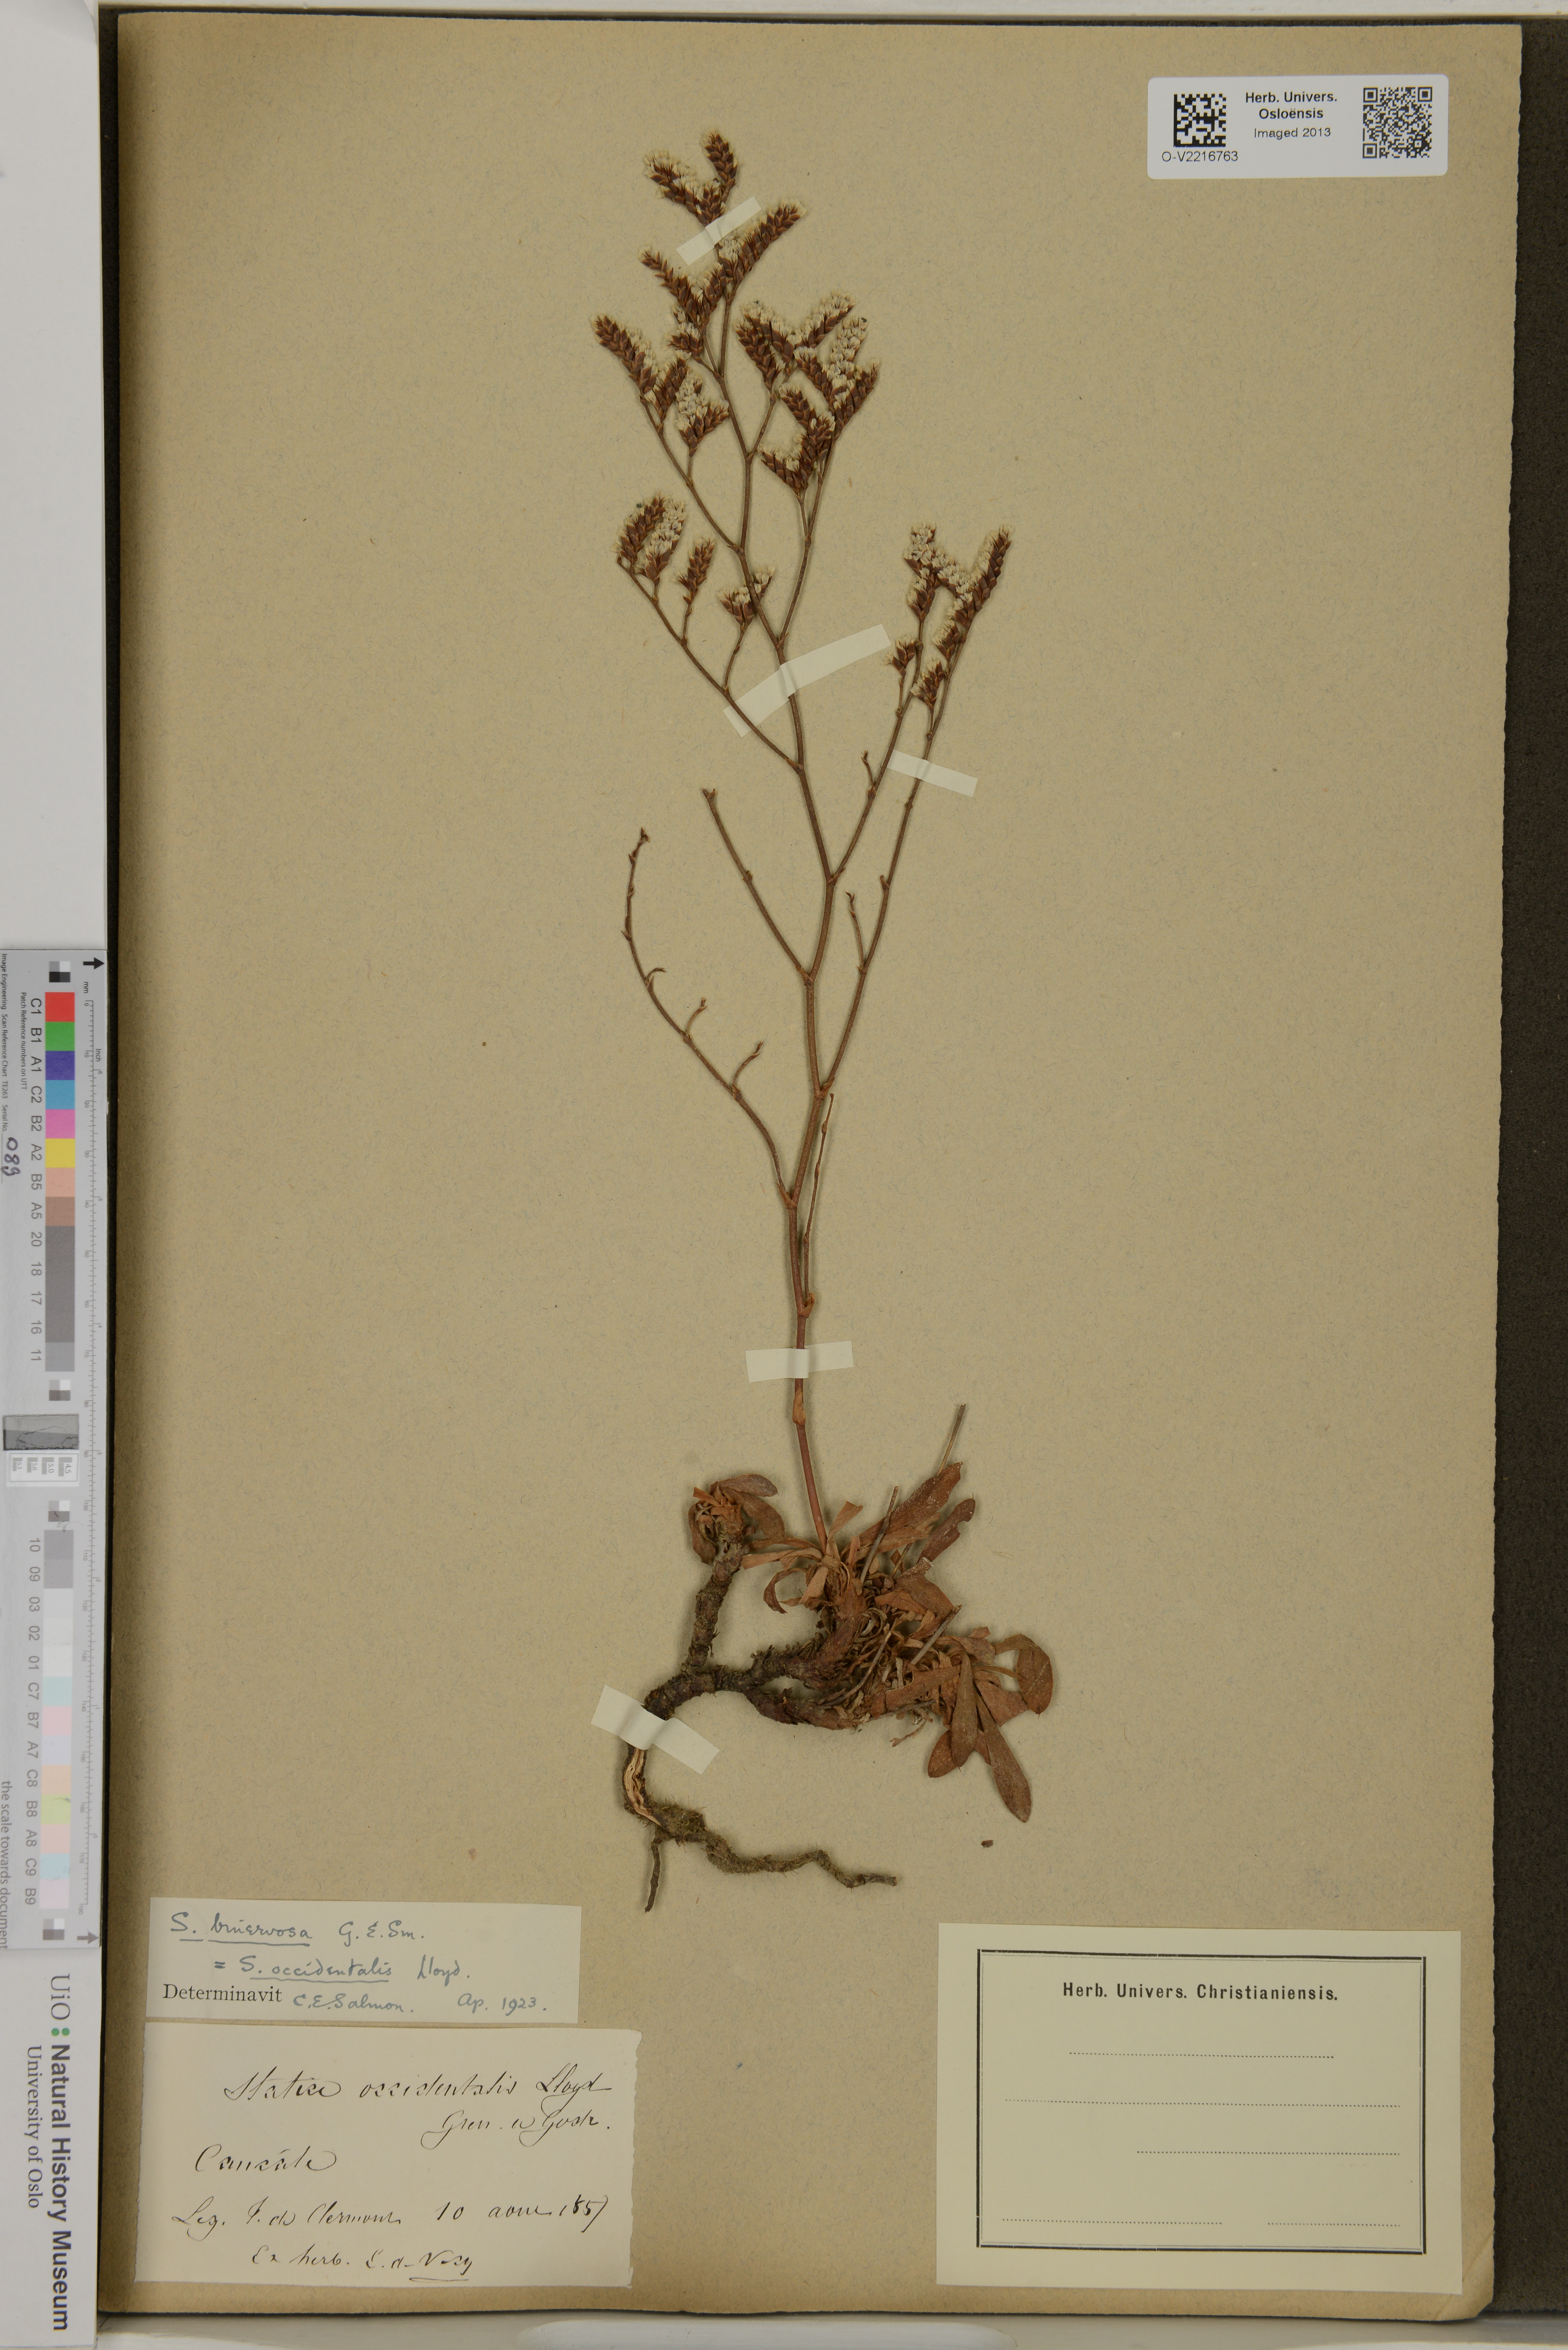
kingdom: Plantae
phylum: Tracheophyta
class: Magnoliopsida
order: Caryophyllales
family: Plumbaginaceae
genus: Limonium
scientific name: Limonium occidentale
